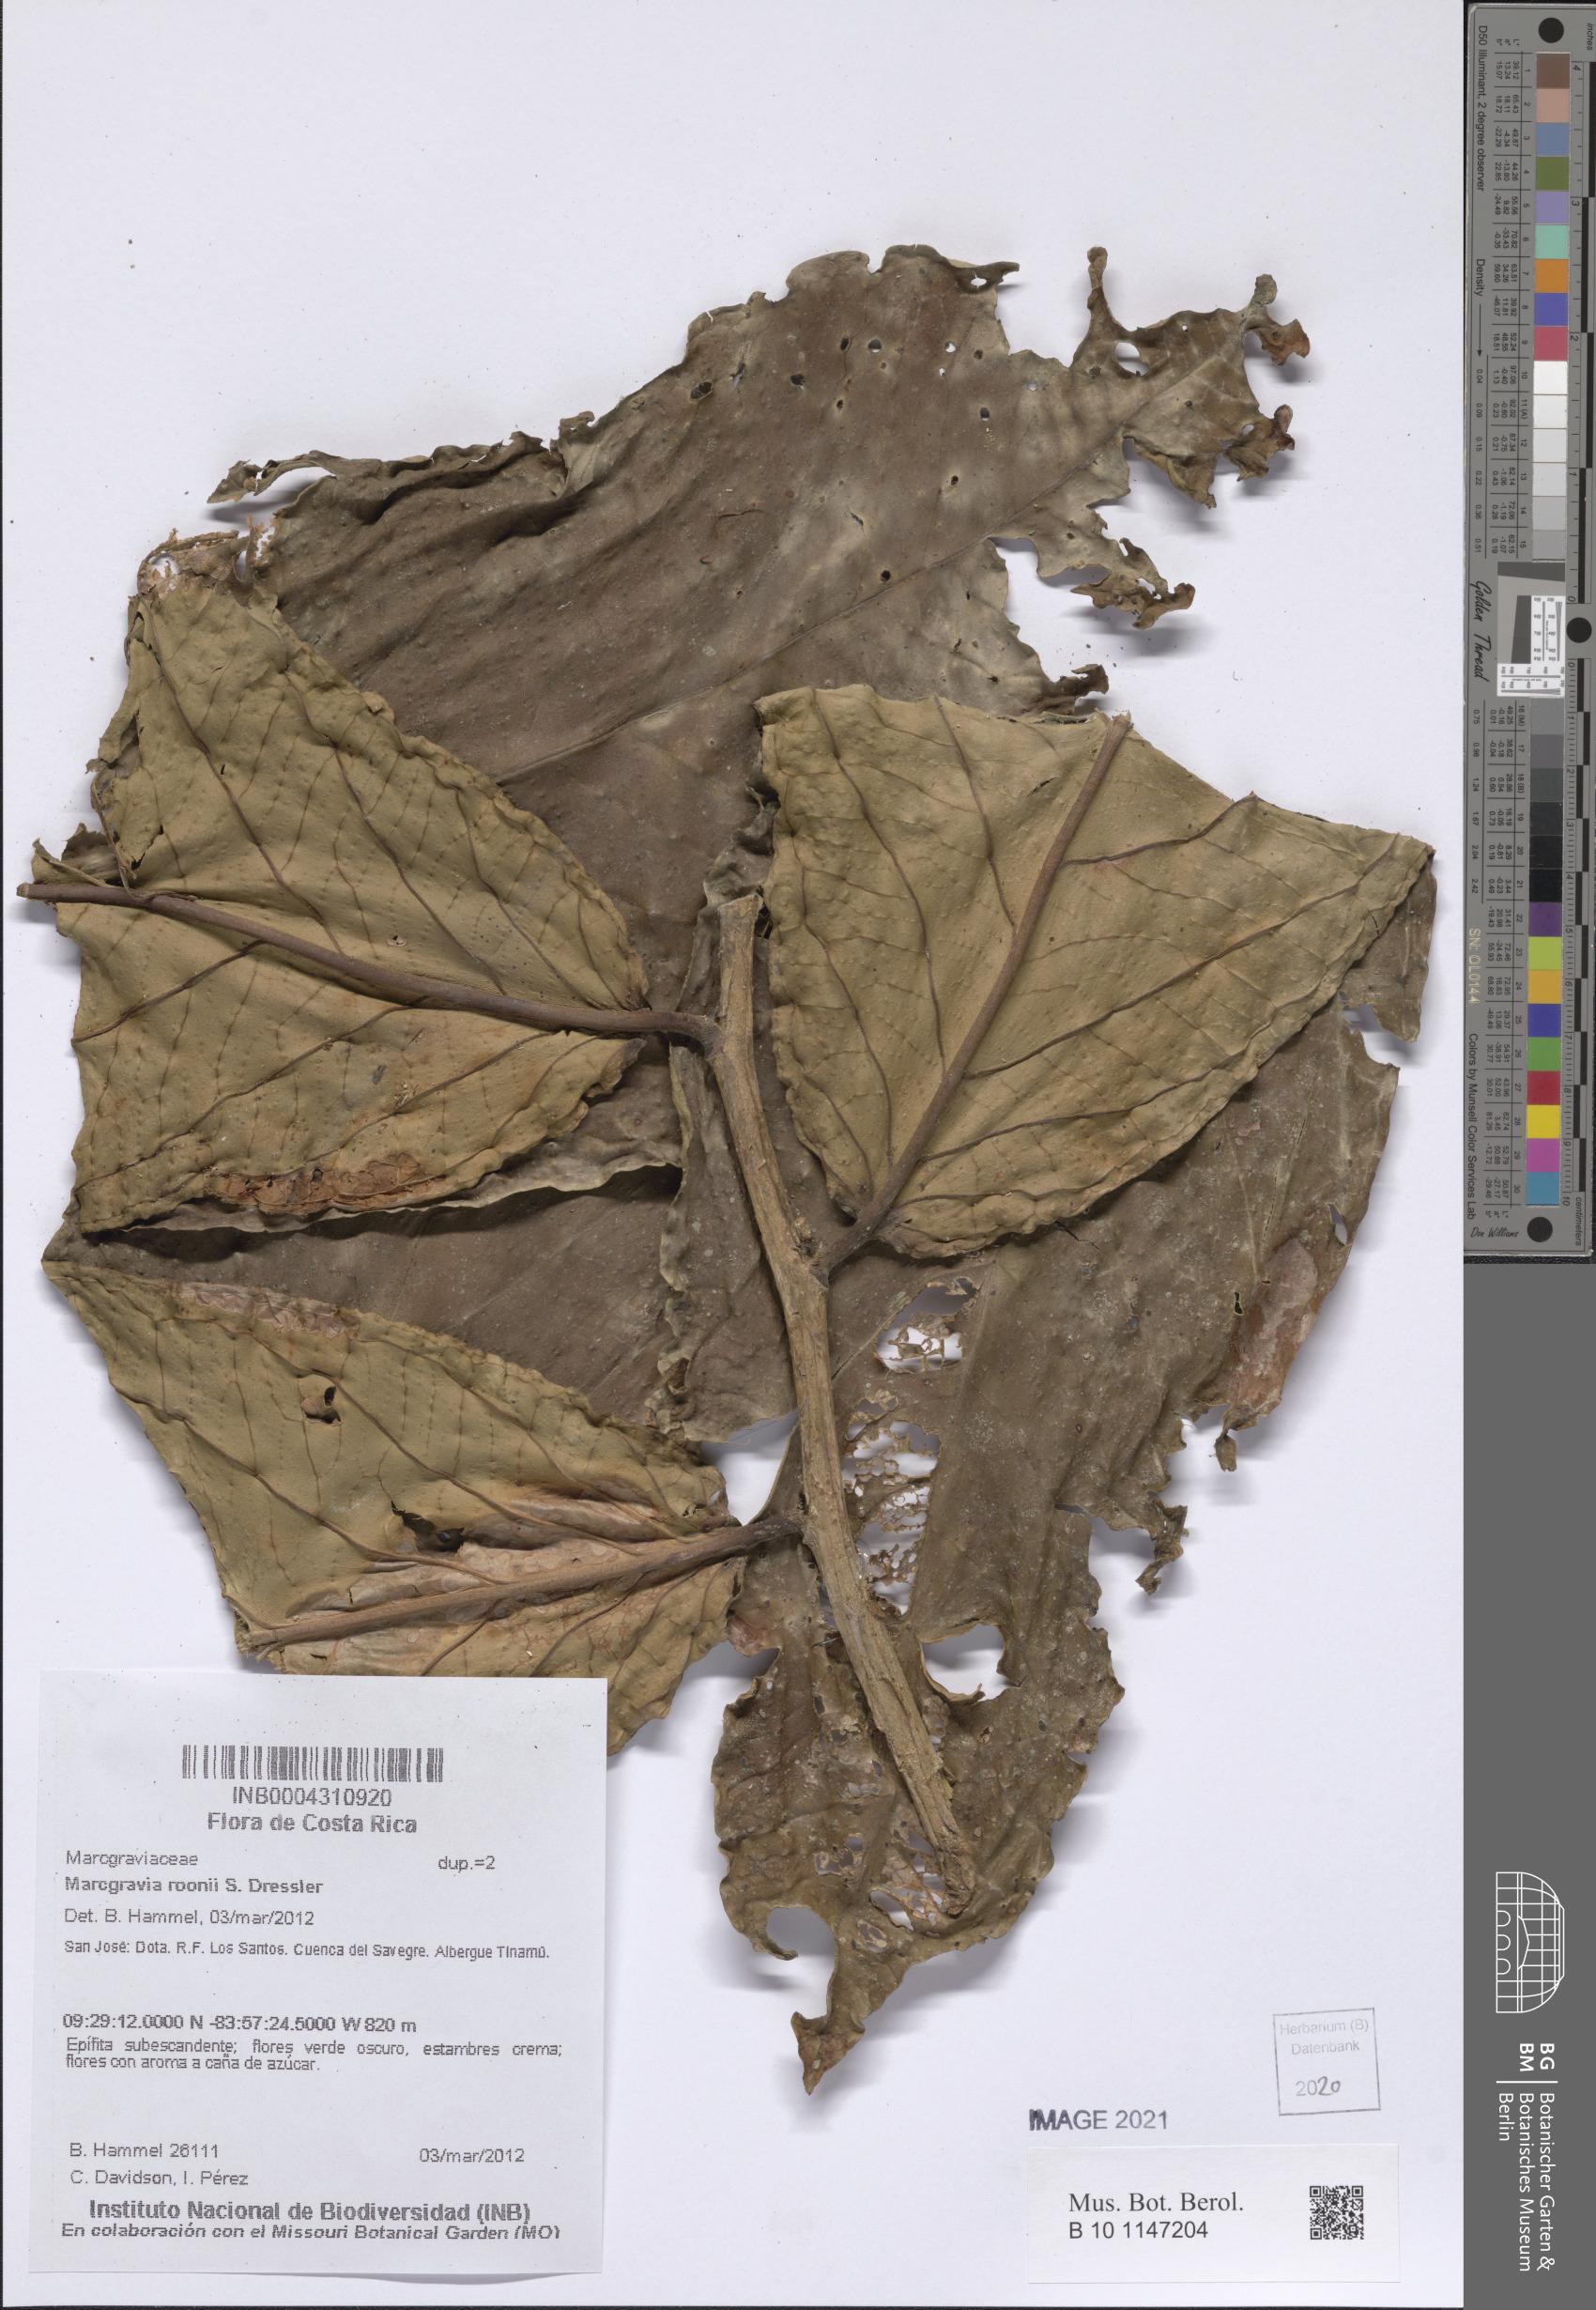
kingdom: Plantae
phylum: Tracheophyta
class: Magnoliopsida
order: Ericales
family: Marcgraviaceae
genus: Marcgravia
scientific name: Marcgravia roonii
